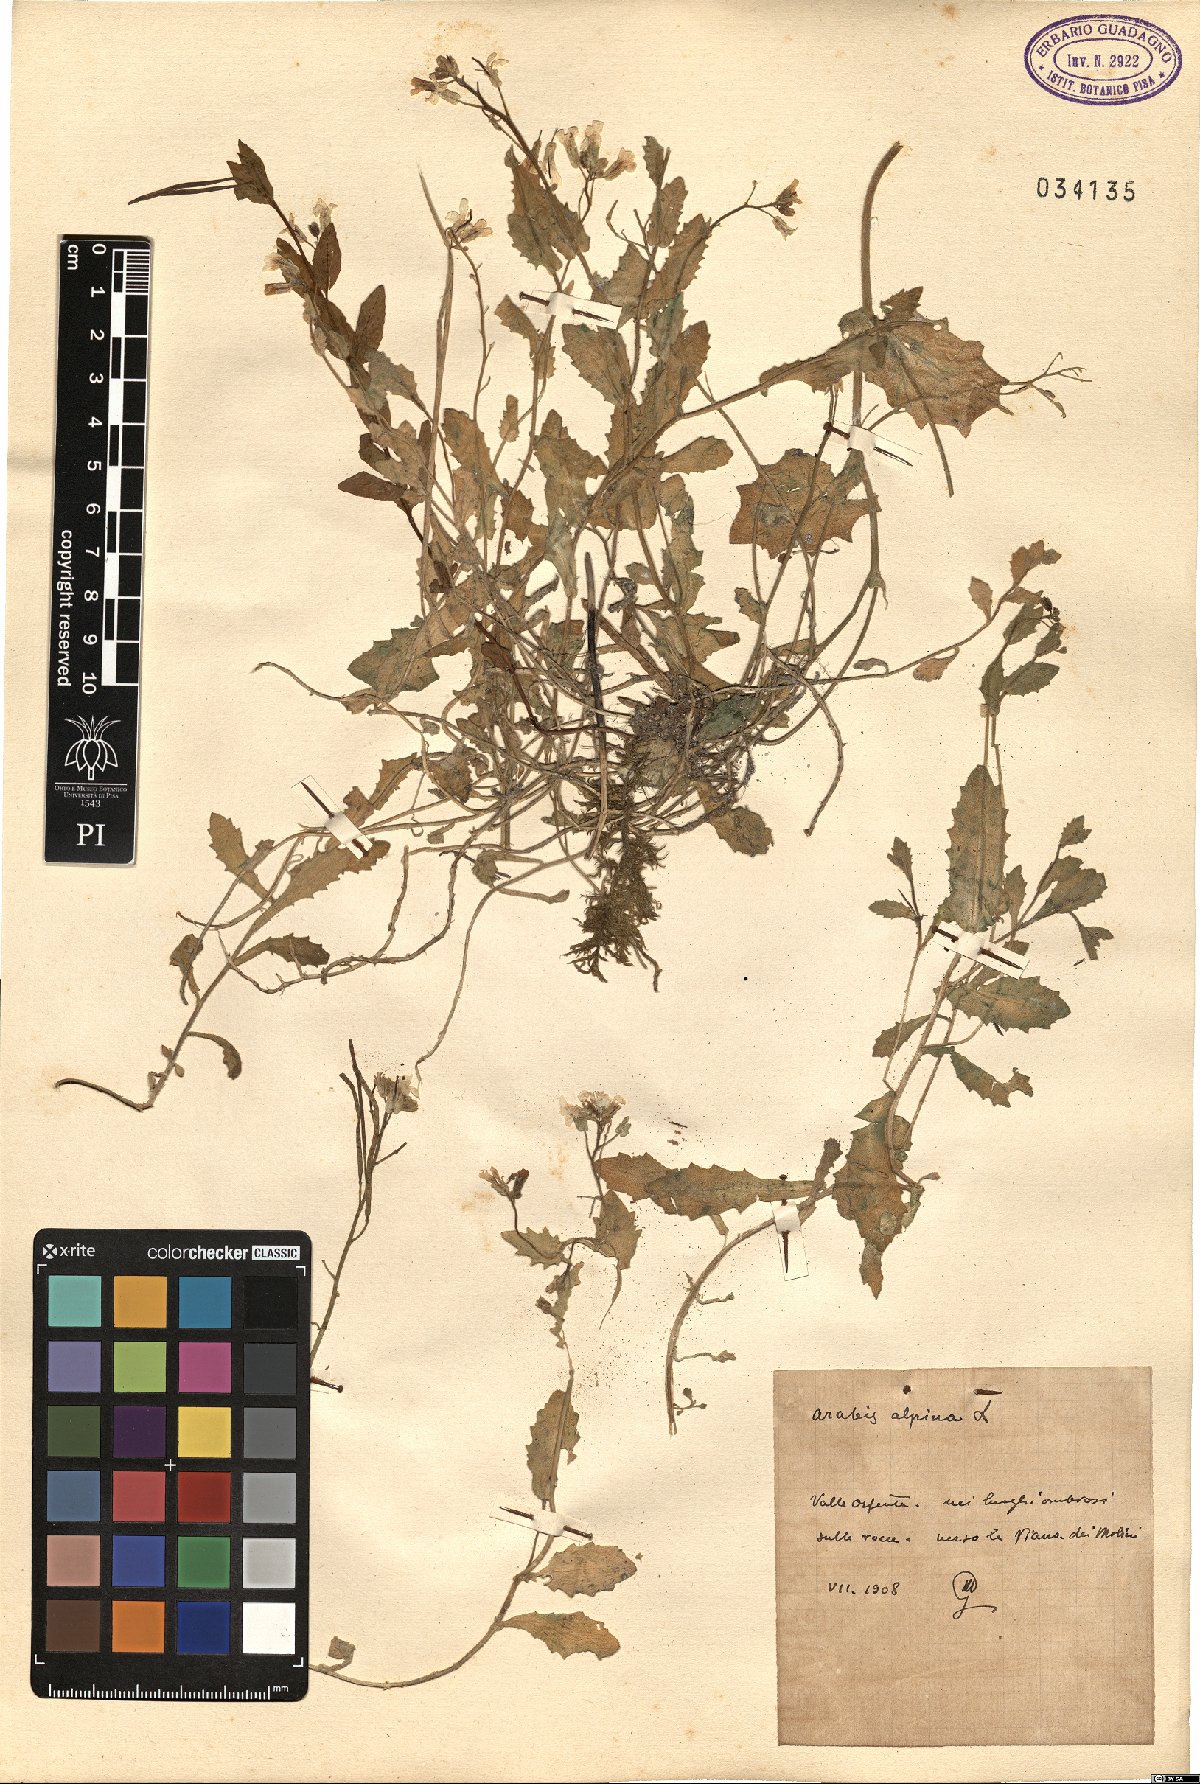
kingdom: Plantae
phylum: Tracheophyta
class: Magnoliopsida
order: Brassicales
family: Brassicaceae
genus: Arabis
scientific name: Arabis alpina
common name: Alpine rock-cress
